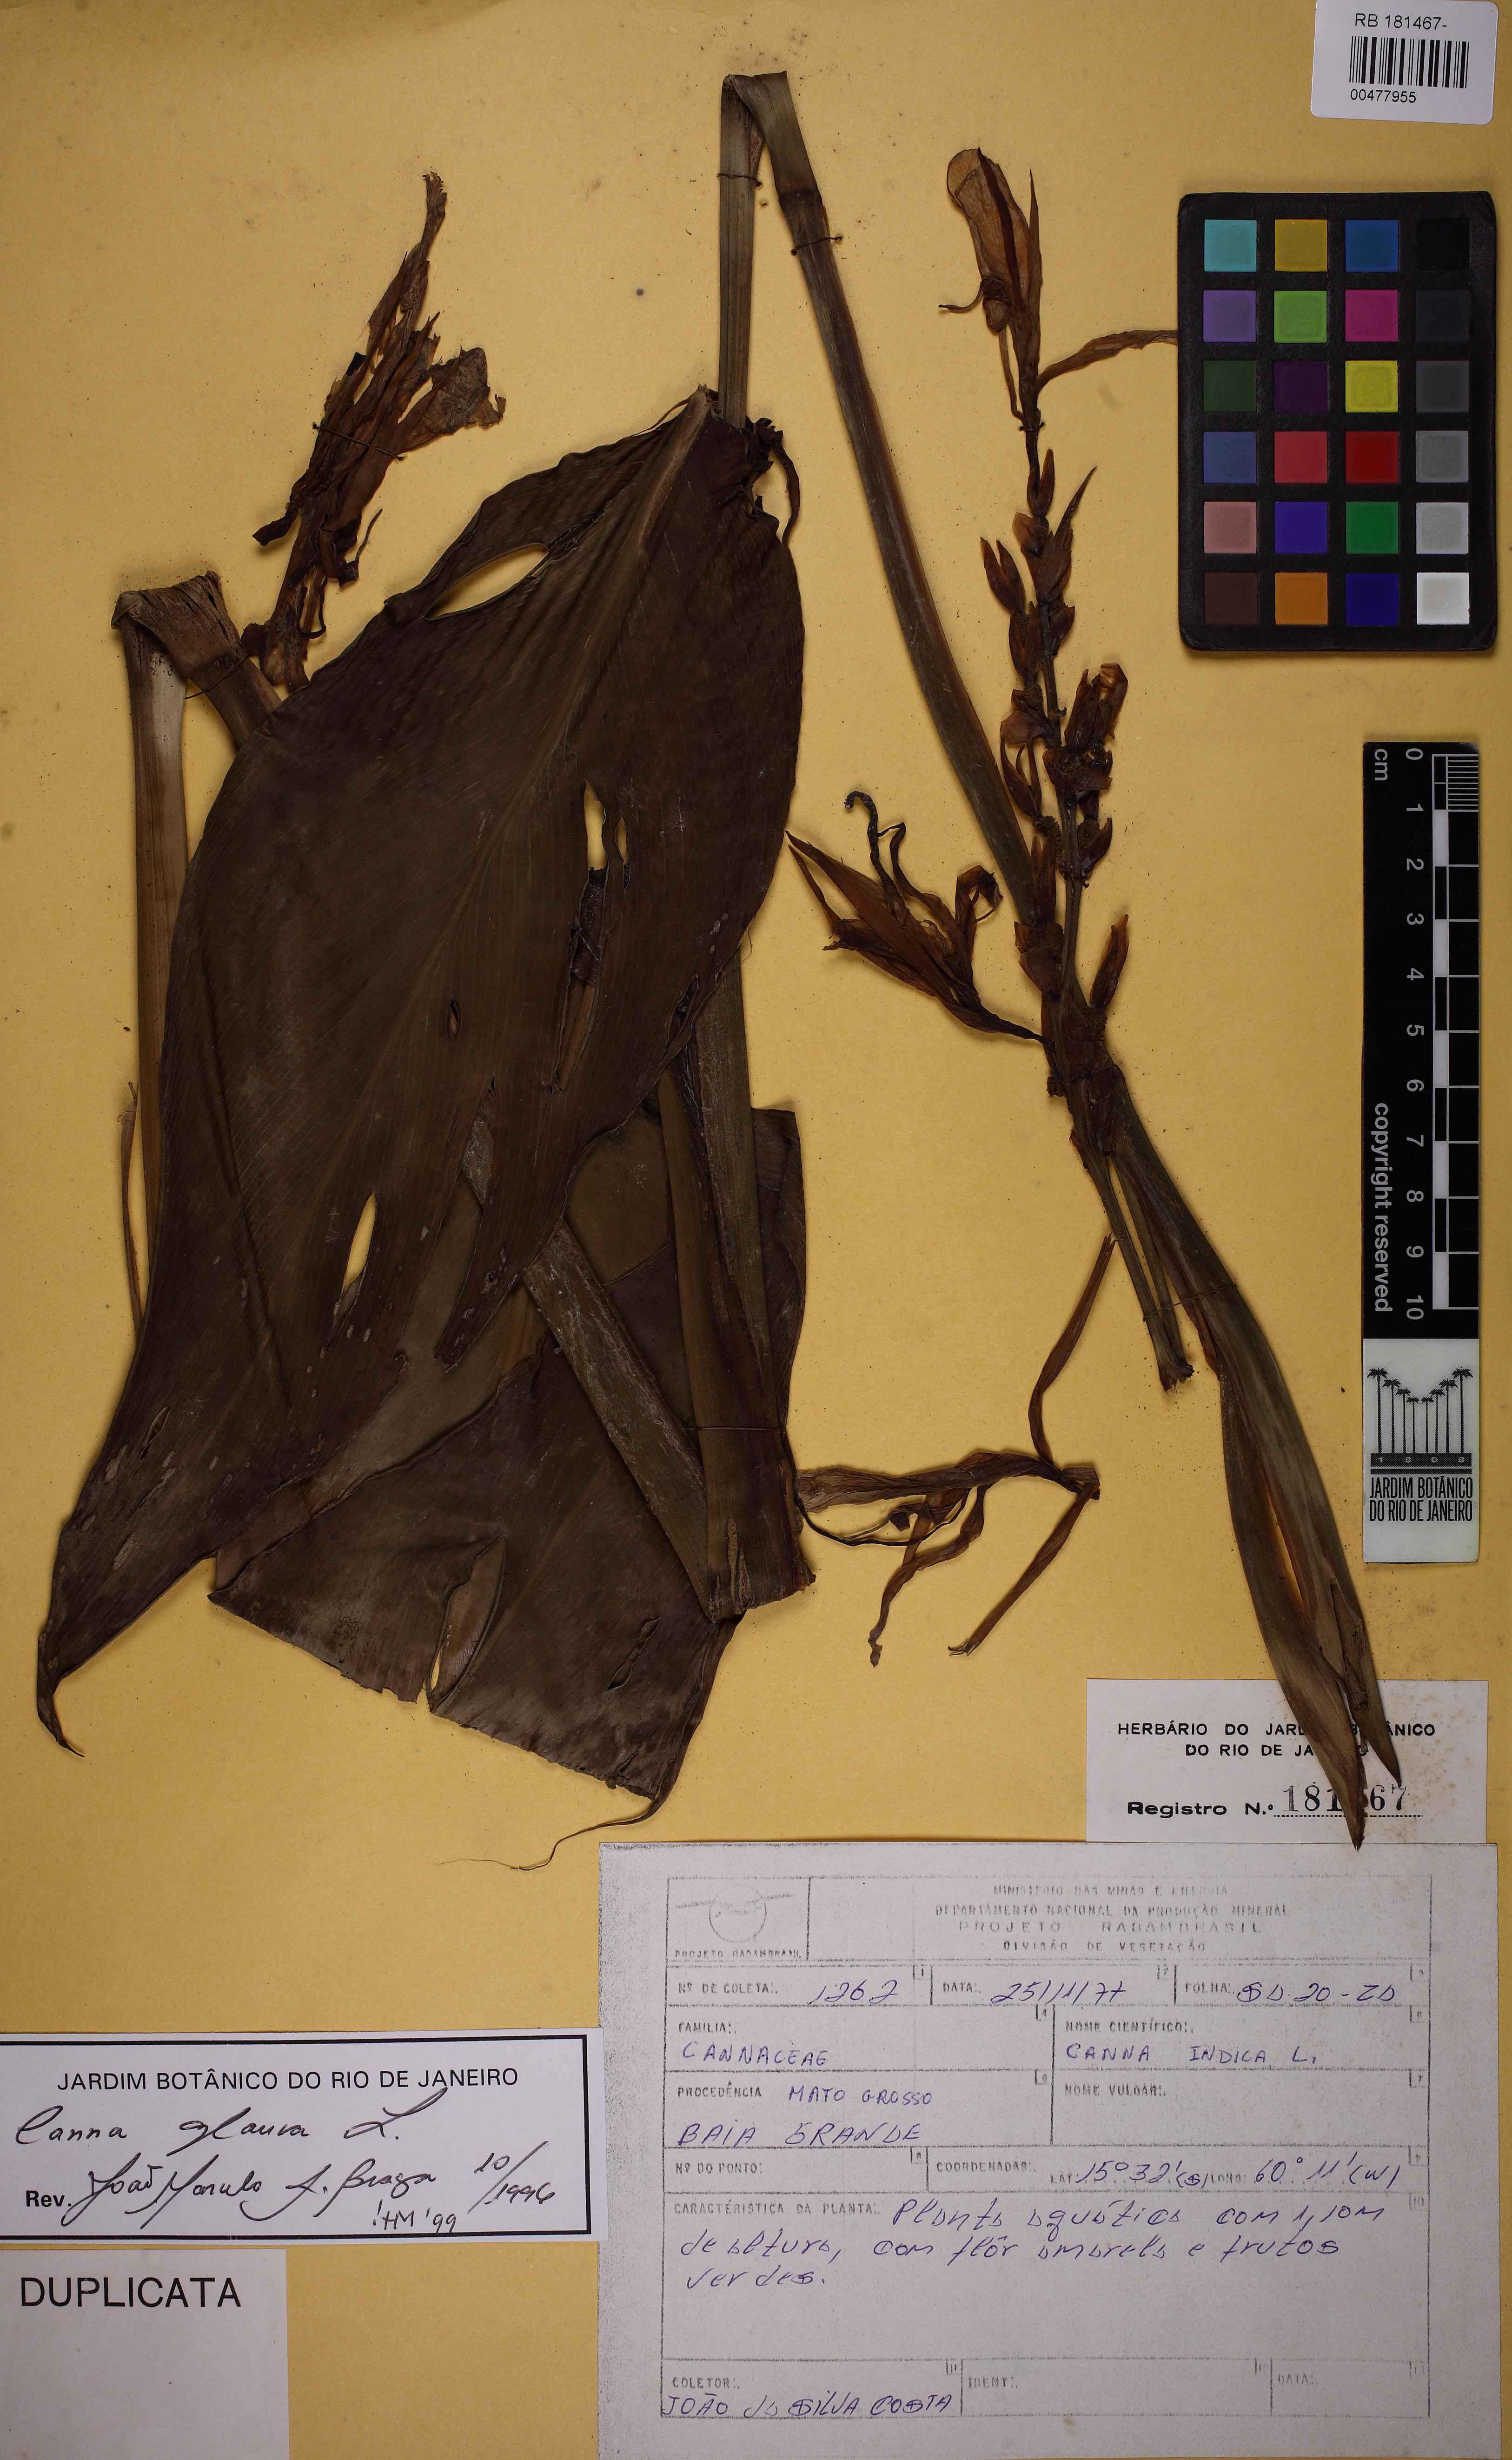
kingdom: Plantae
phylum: Tracheophyta
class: Liliopsida
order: Zingiberales
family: Cannaceae
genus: Canna
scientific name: Canna glauca
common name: Louisiana canna
